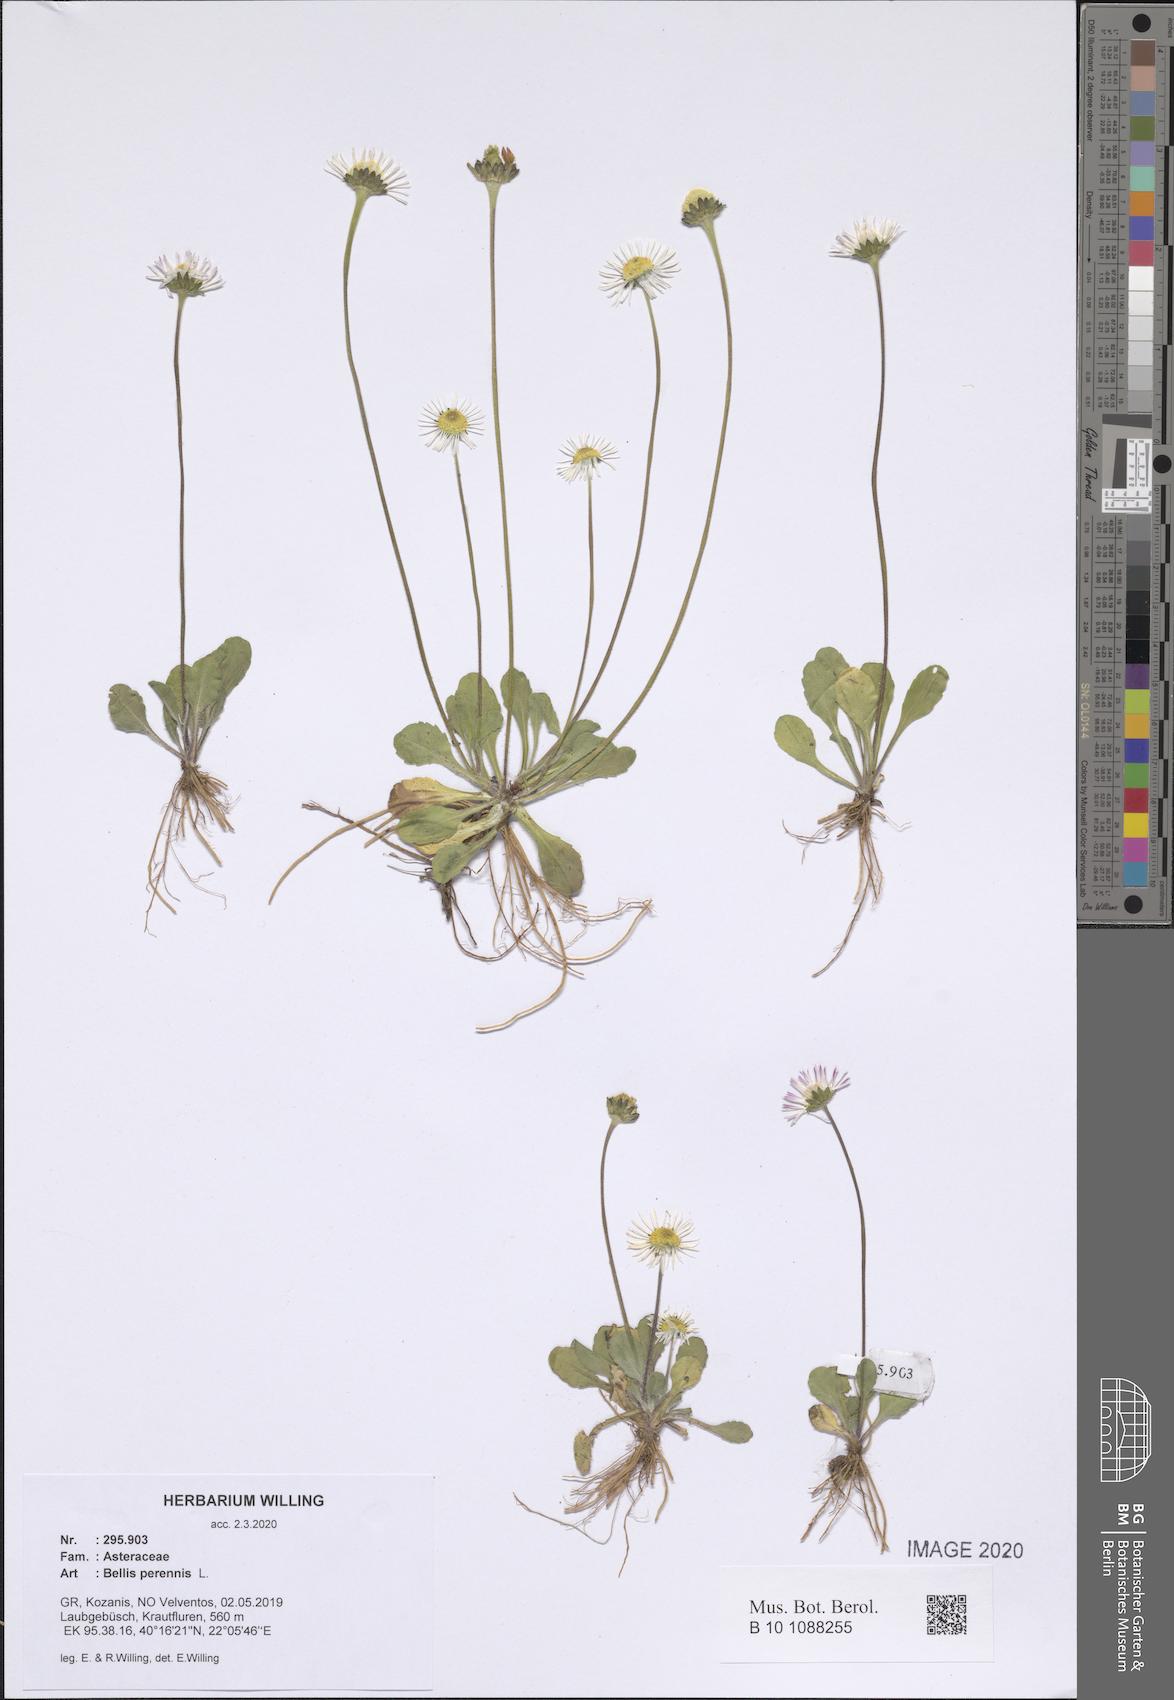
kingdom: Plantae
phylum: Tracheophyta
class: Magnoliopsida
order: Asterales
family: Asteraceae
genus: Bellis
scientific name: Bellis perennis
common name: Lawndaisy
